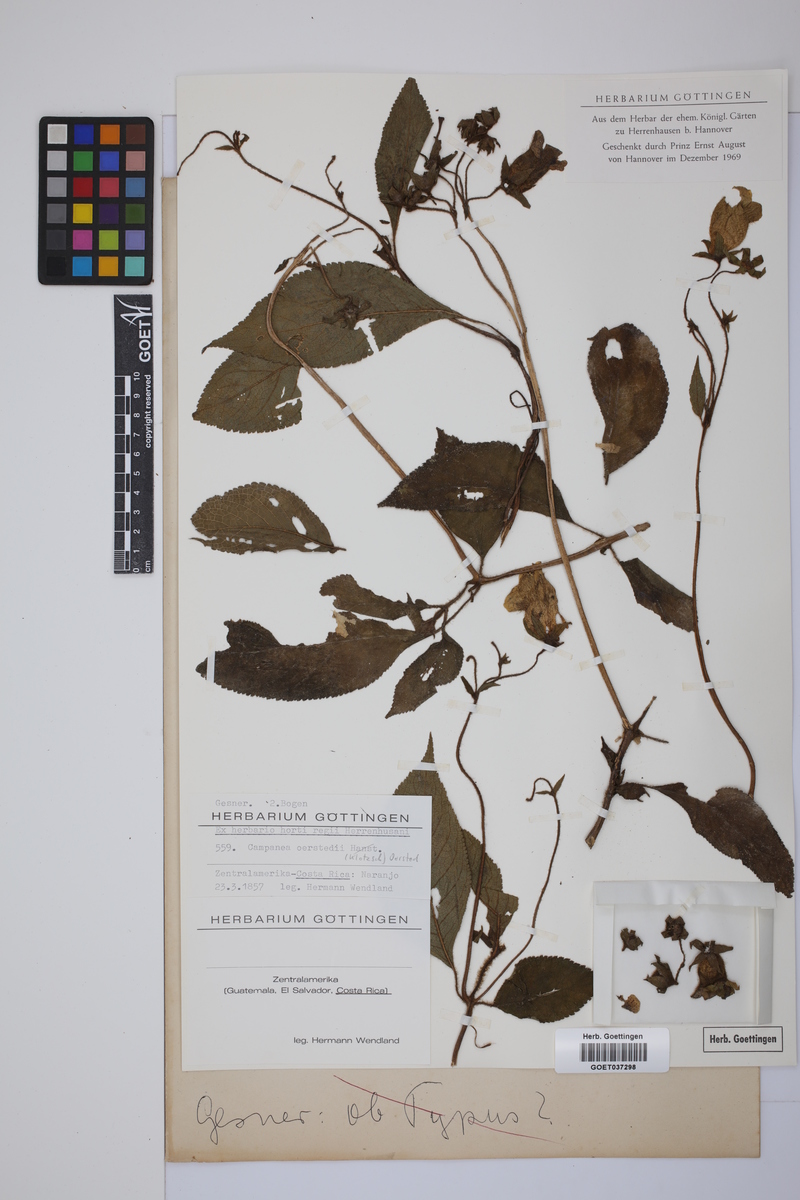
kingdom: Plantae
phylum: Tracheophyta
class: Magnoliopsida
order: Lamiales
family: Gesneriaceae
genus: Kohleria
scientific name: Kohleria tigridia
